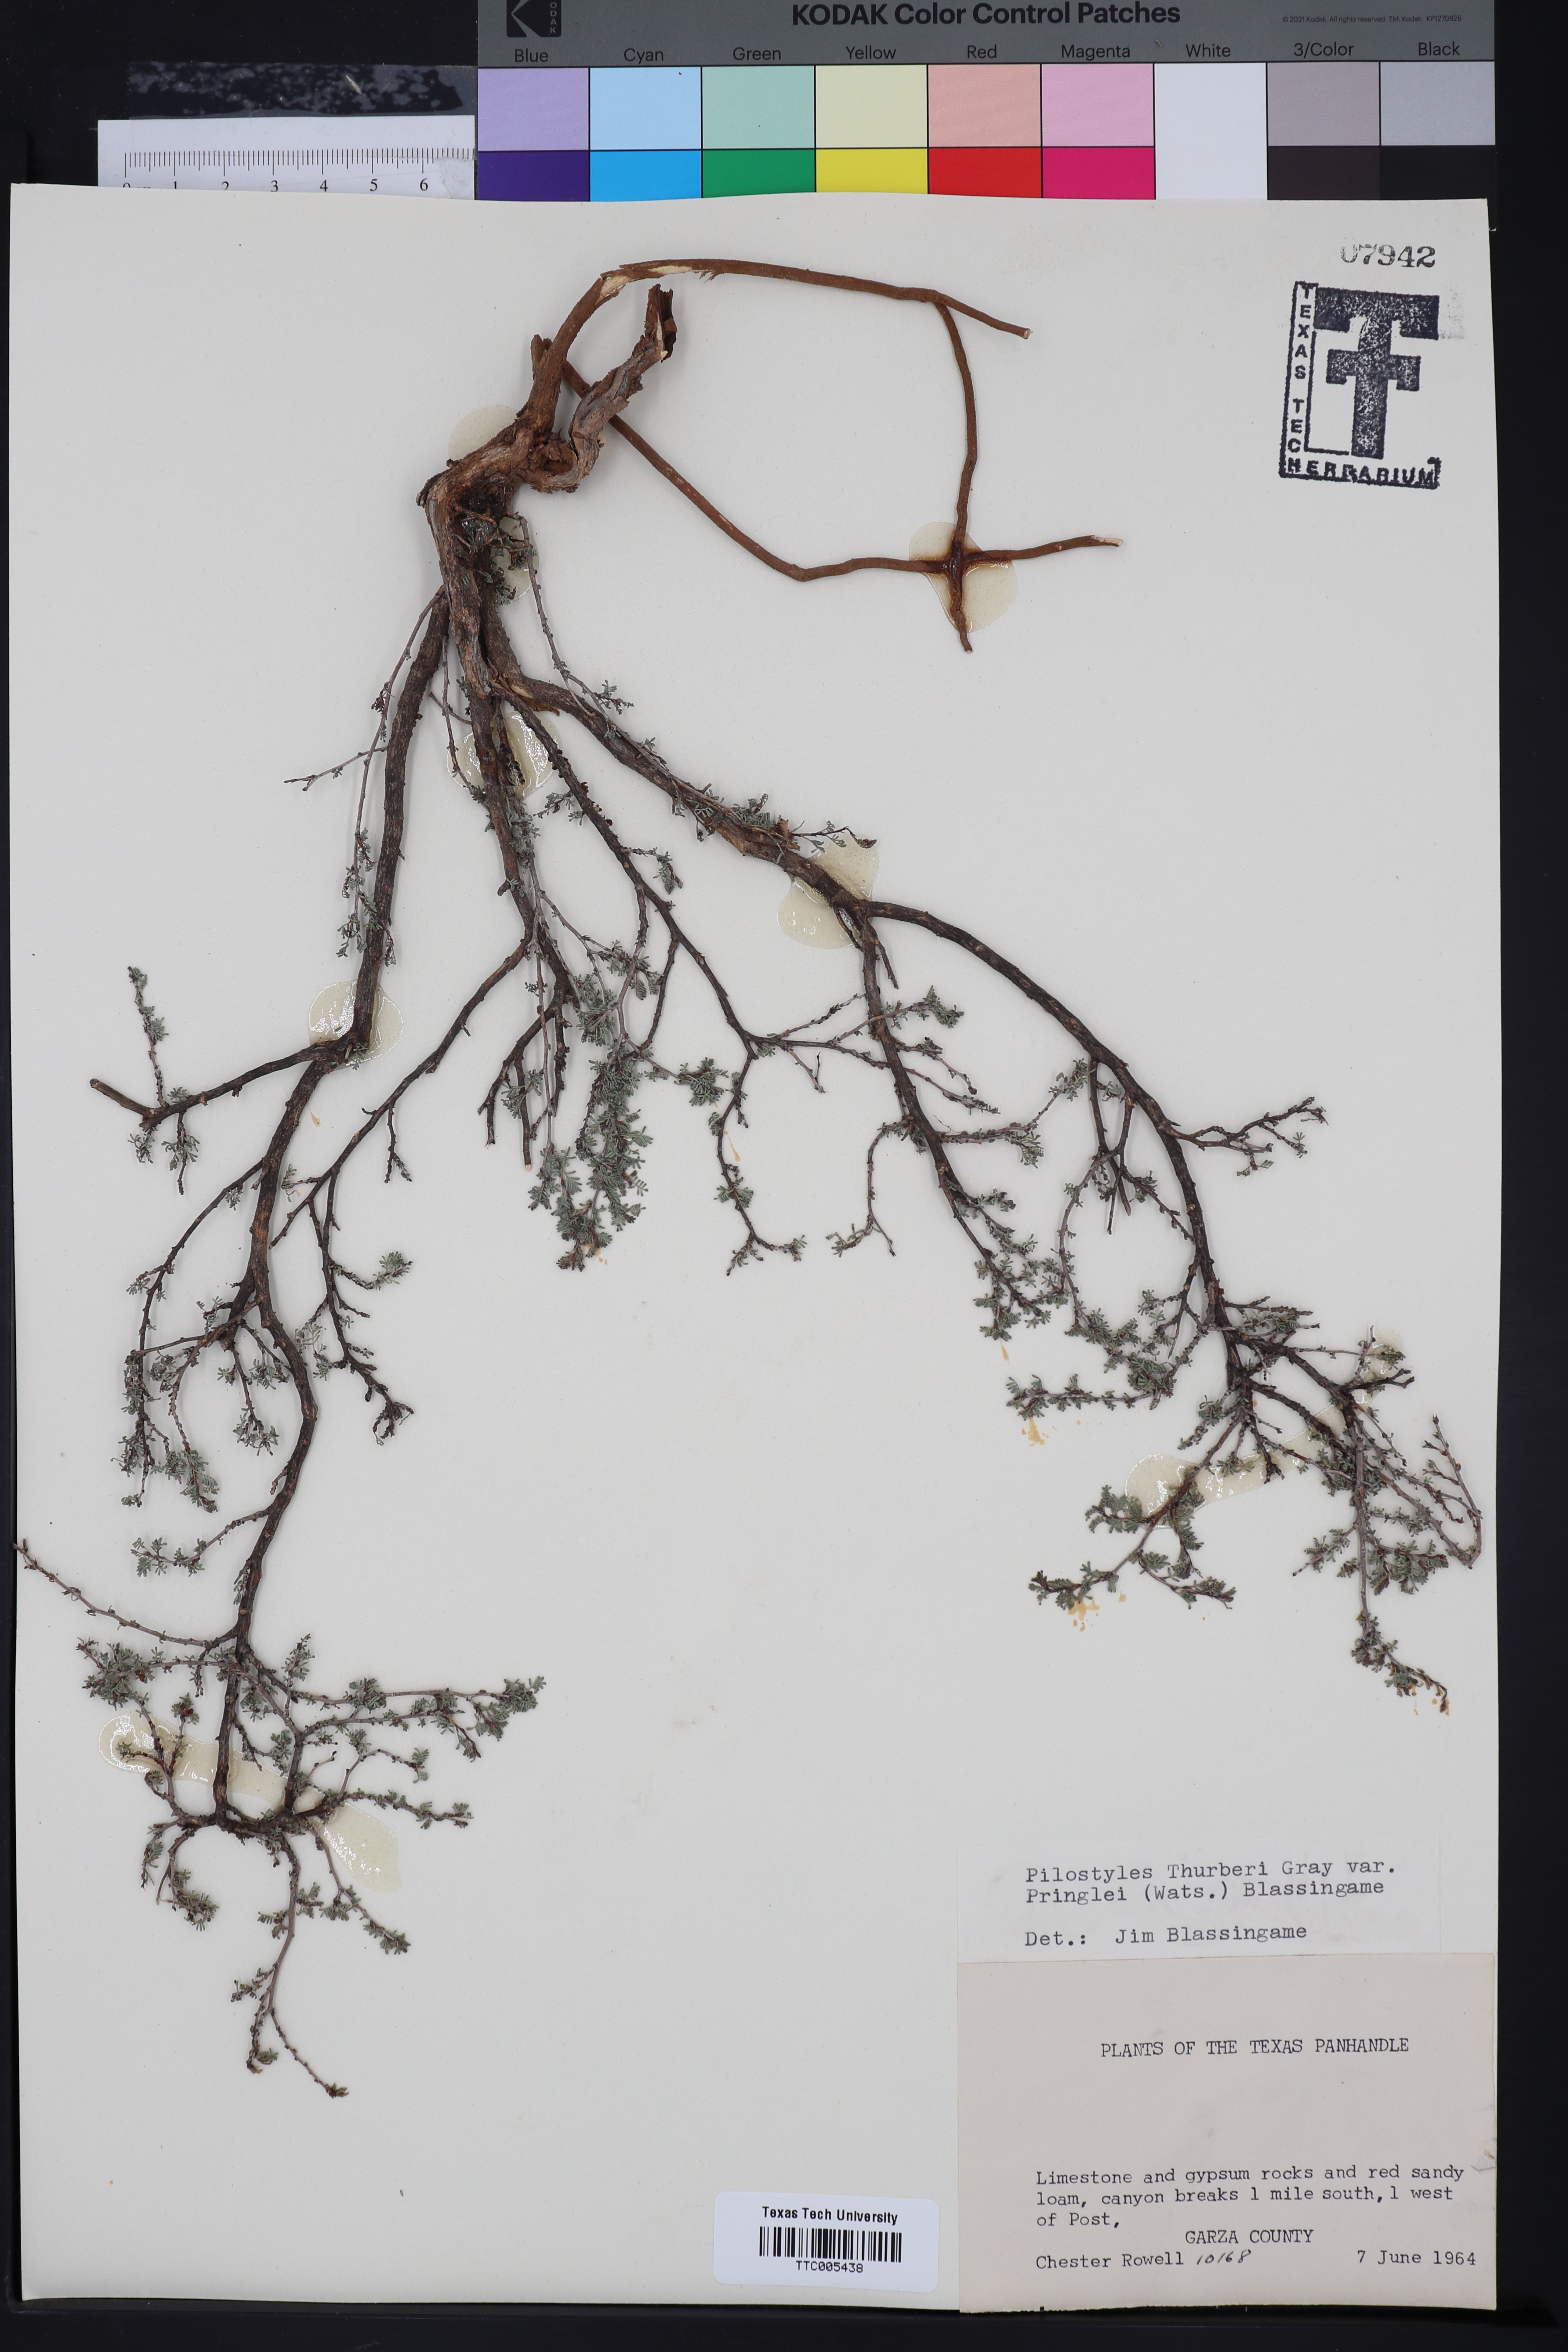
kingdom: Plantae
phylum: Tracheophyta
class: Magnoliopsida
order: Cucurbitales
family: Apodanthaceae
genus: Pilostyles
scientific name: Pilostyles thurberi
